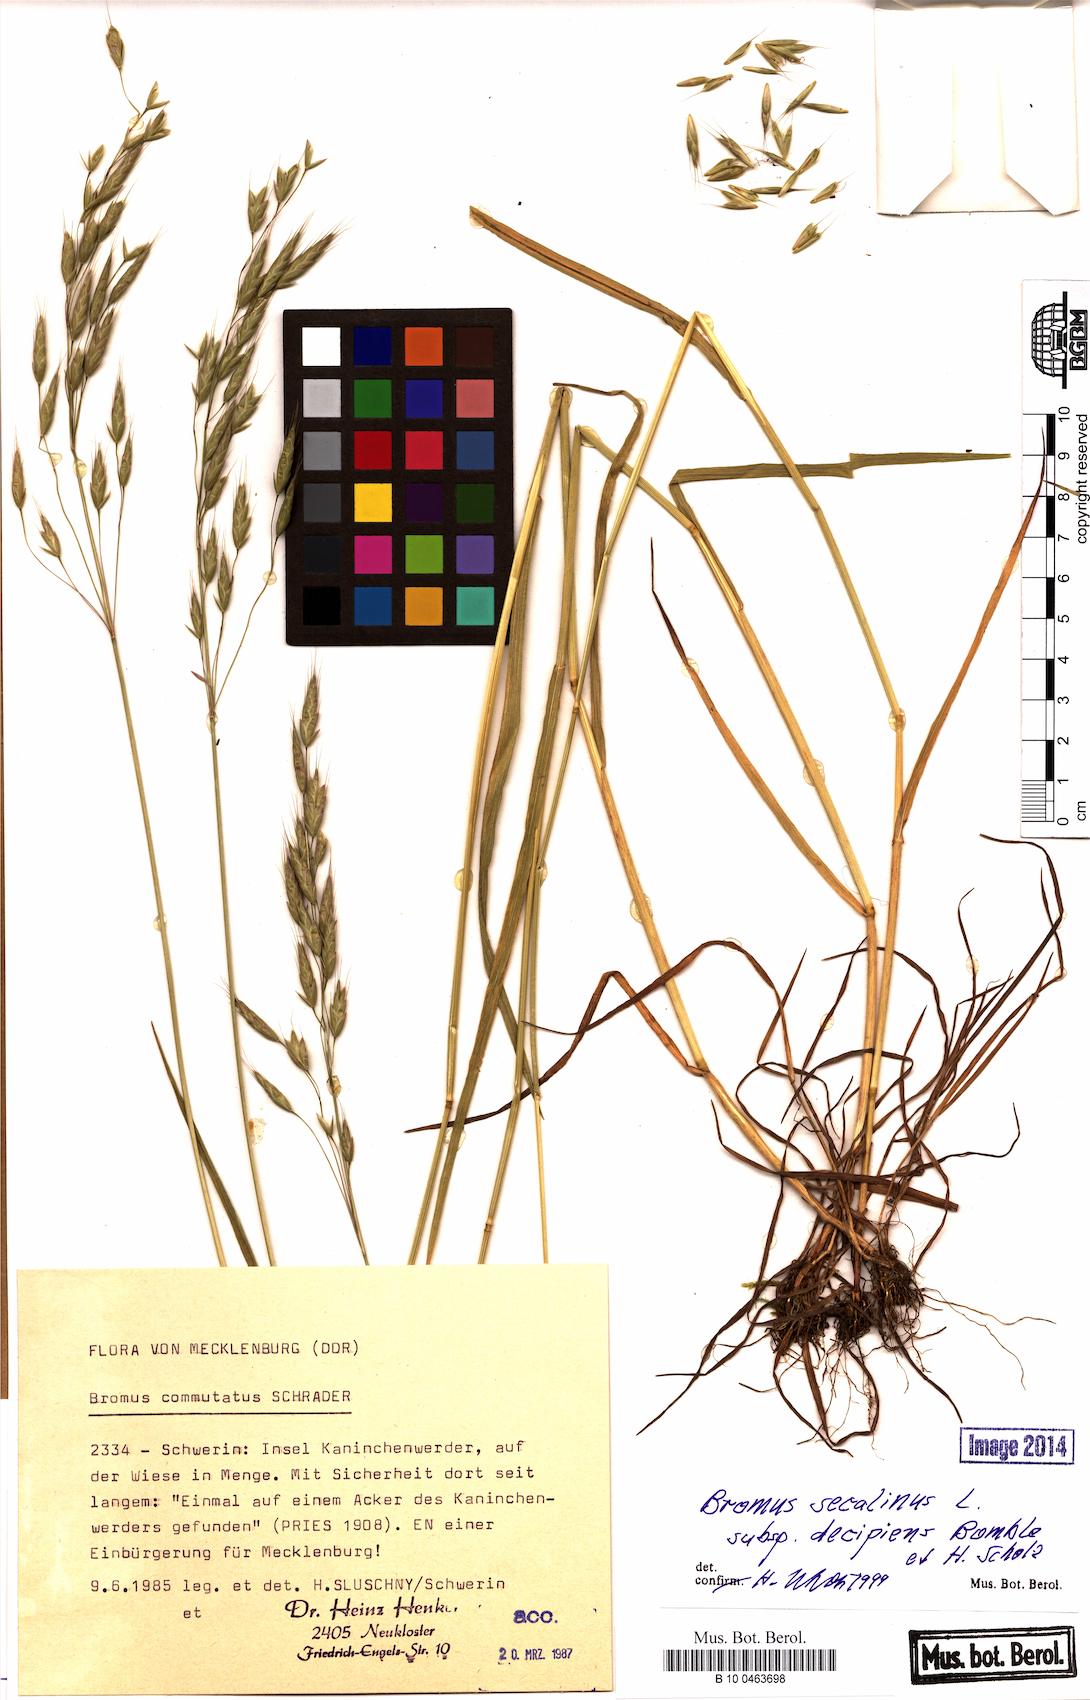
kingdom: Plantae
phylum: Tracheophyta
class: Liliopsida
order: Poales
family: Poaceae
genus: Bromus
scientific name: Bromus commutatus
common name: Meadow brome
